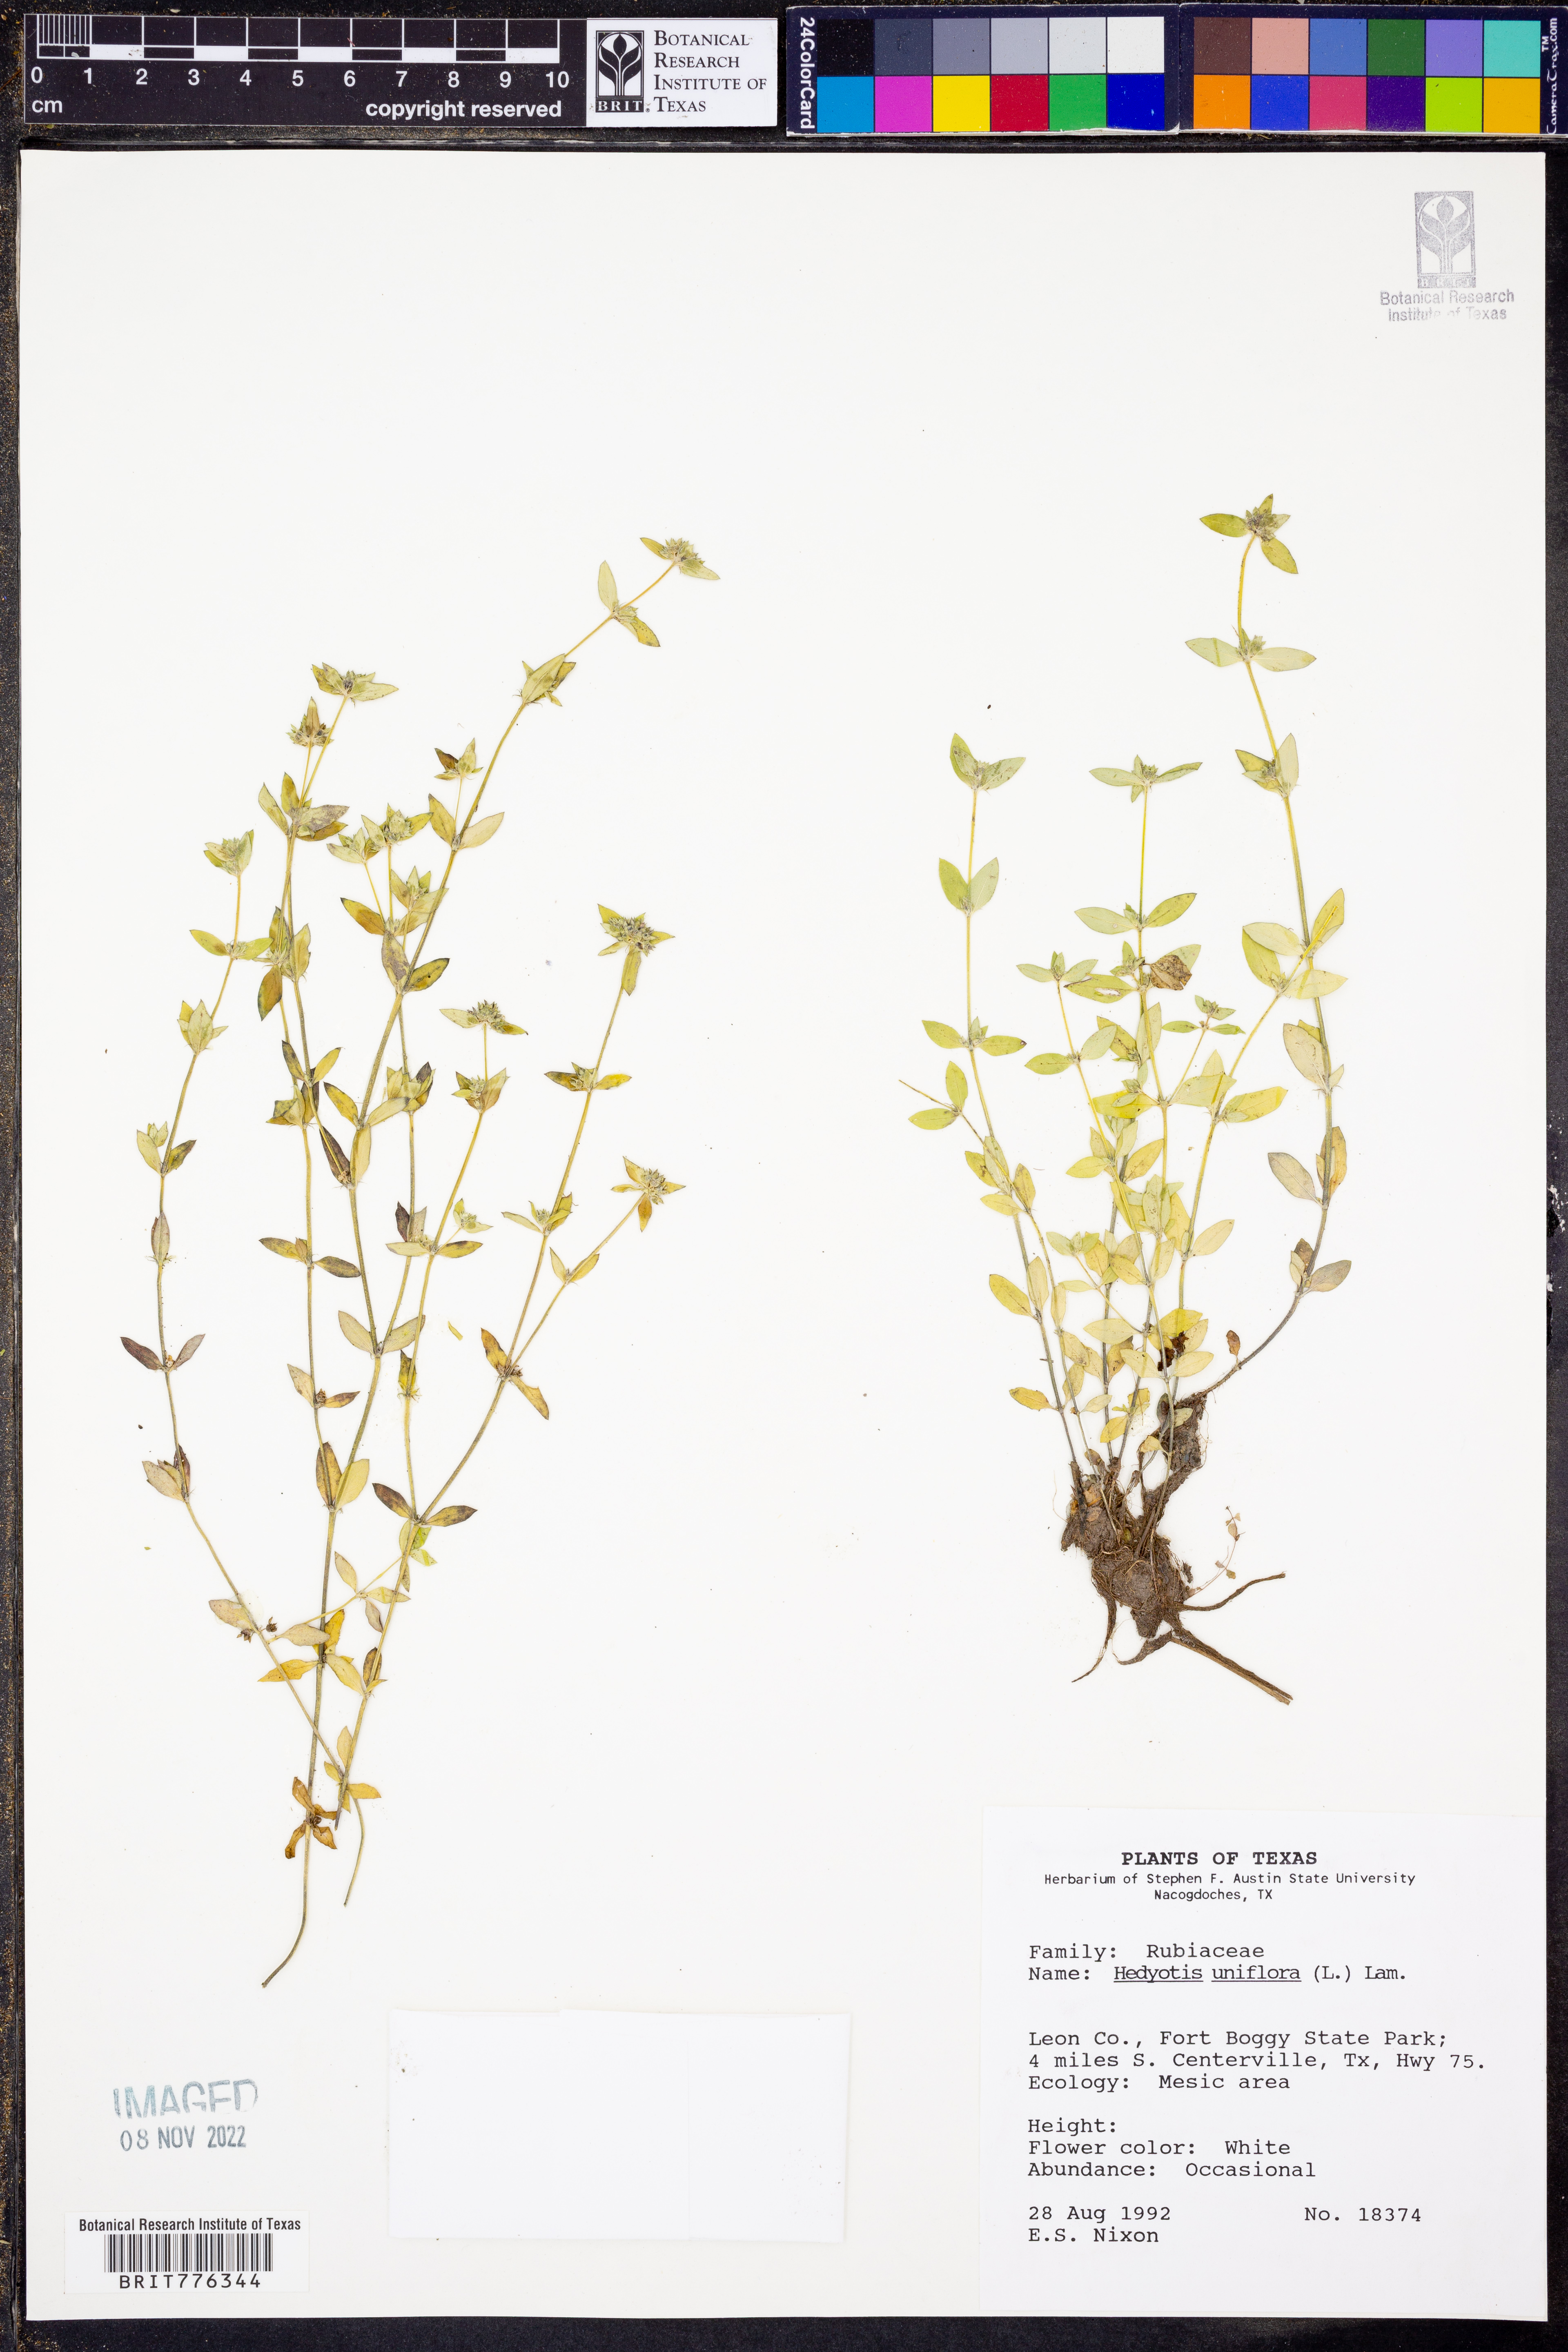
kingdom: Plantae
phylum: Tracheophyta
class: Magnoliopsida
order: Gentianales
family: Rubiaceae
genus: Edrastima
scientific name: Edrastima uniflora
